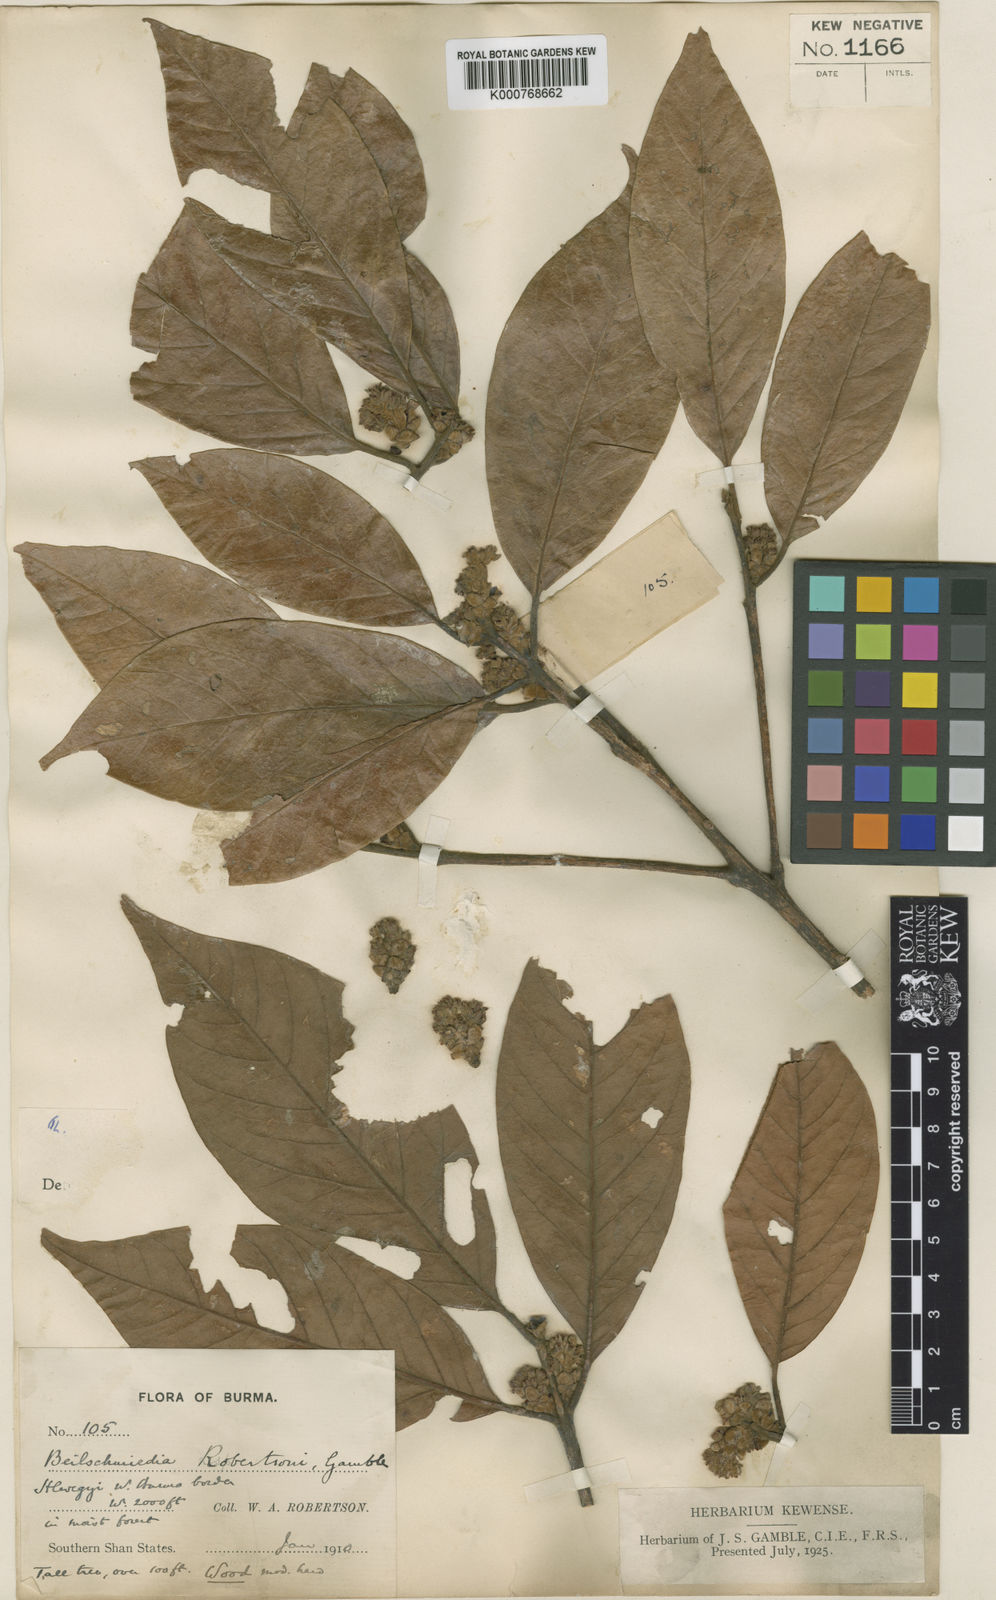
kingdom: Plantae
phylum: Tracheophyta
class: Magnoliopsida
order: Laurales
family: Lauraceae
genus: Beilschmiedia
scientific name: Beilschmiedia robertsonii
